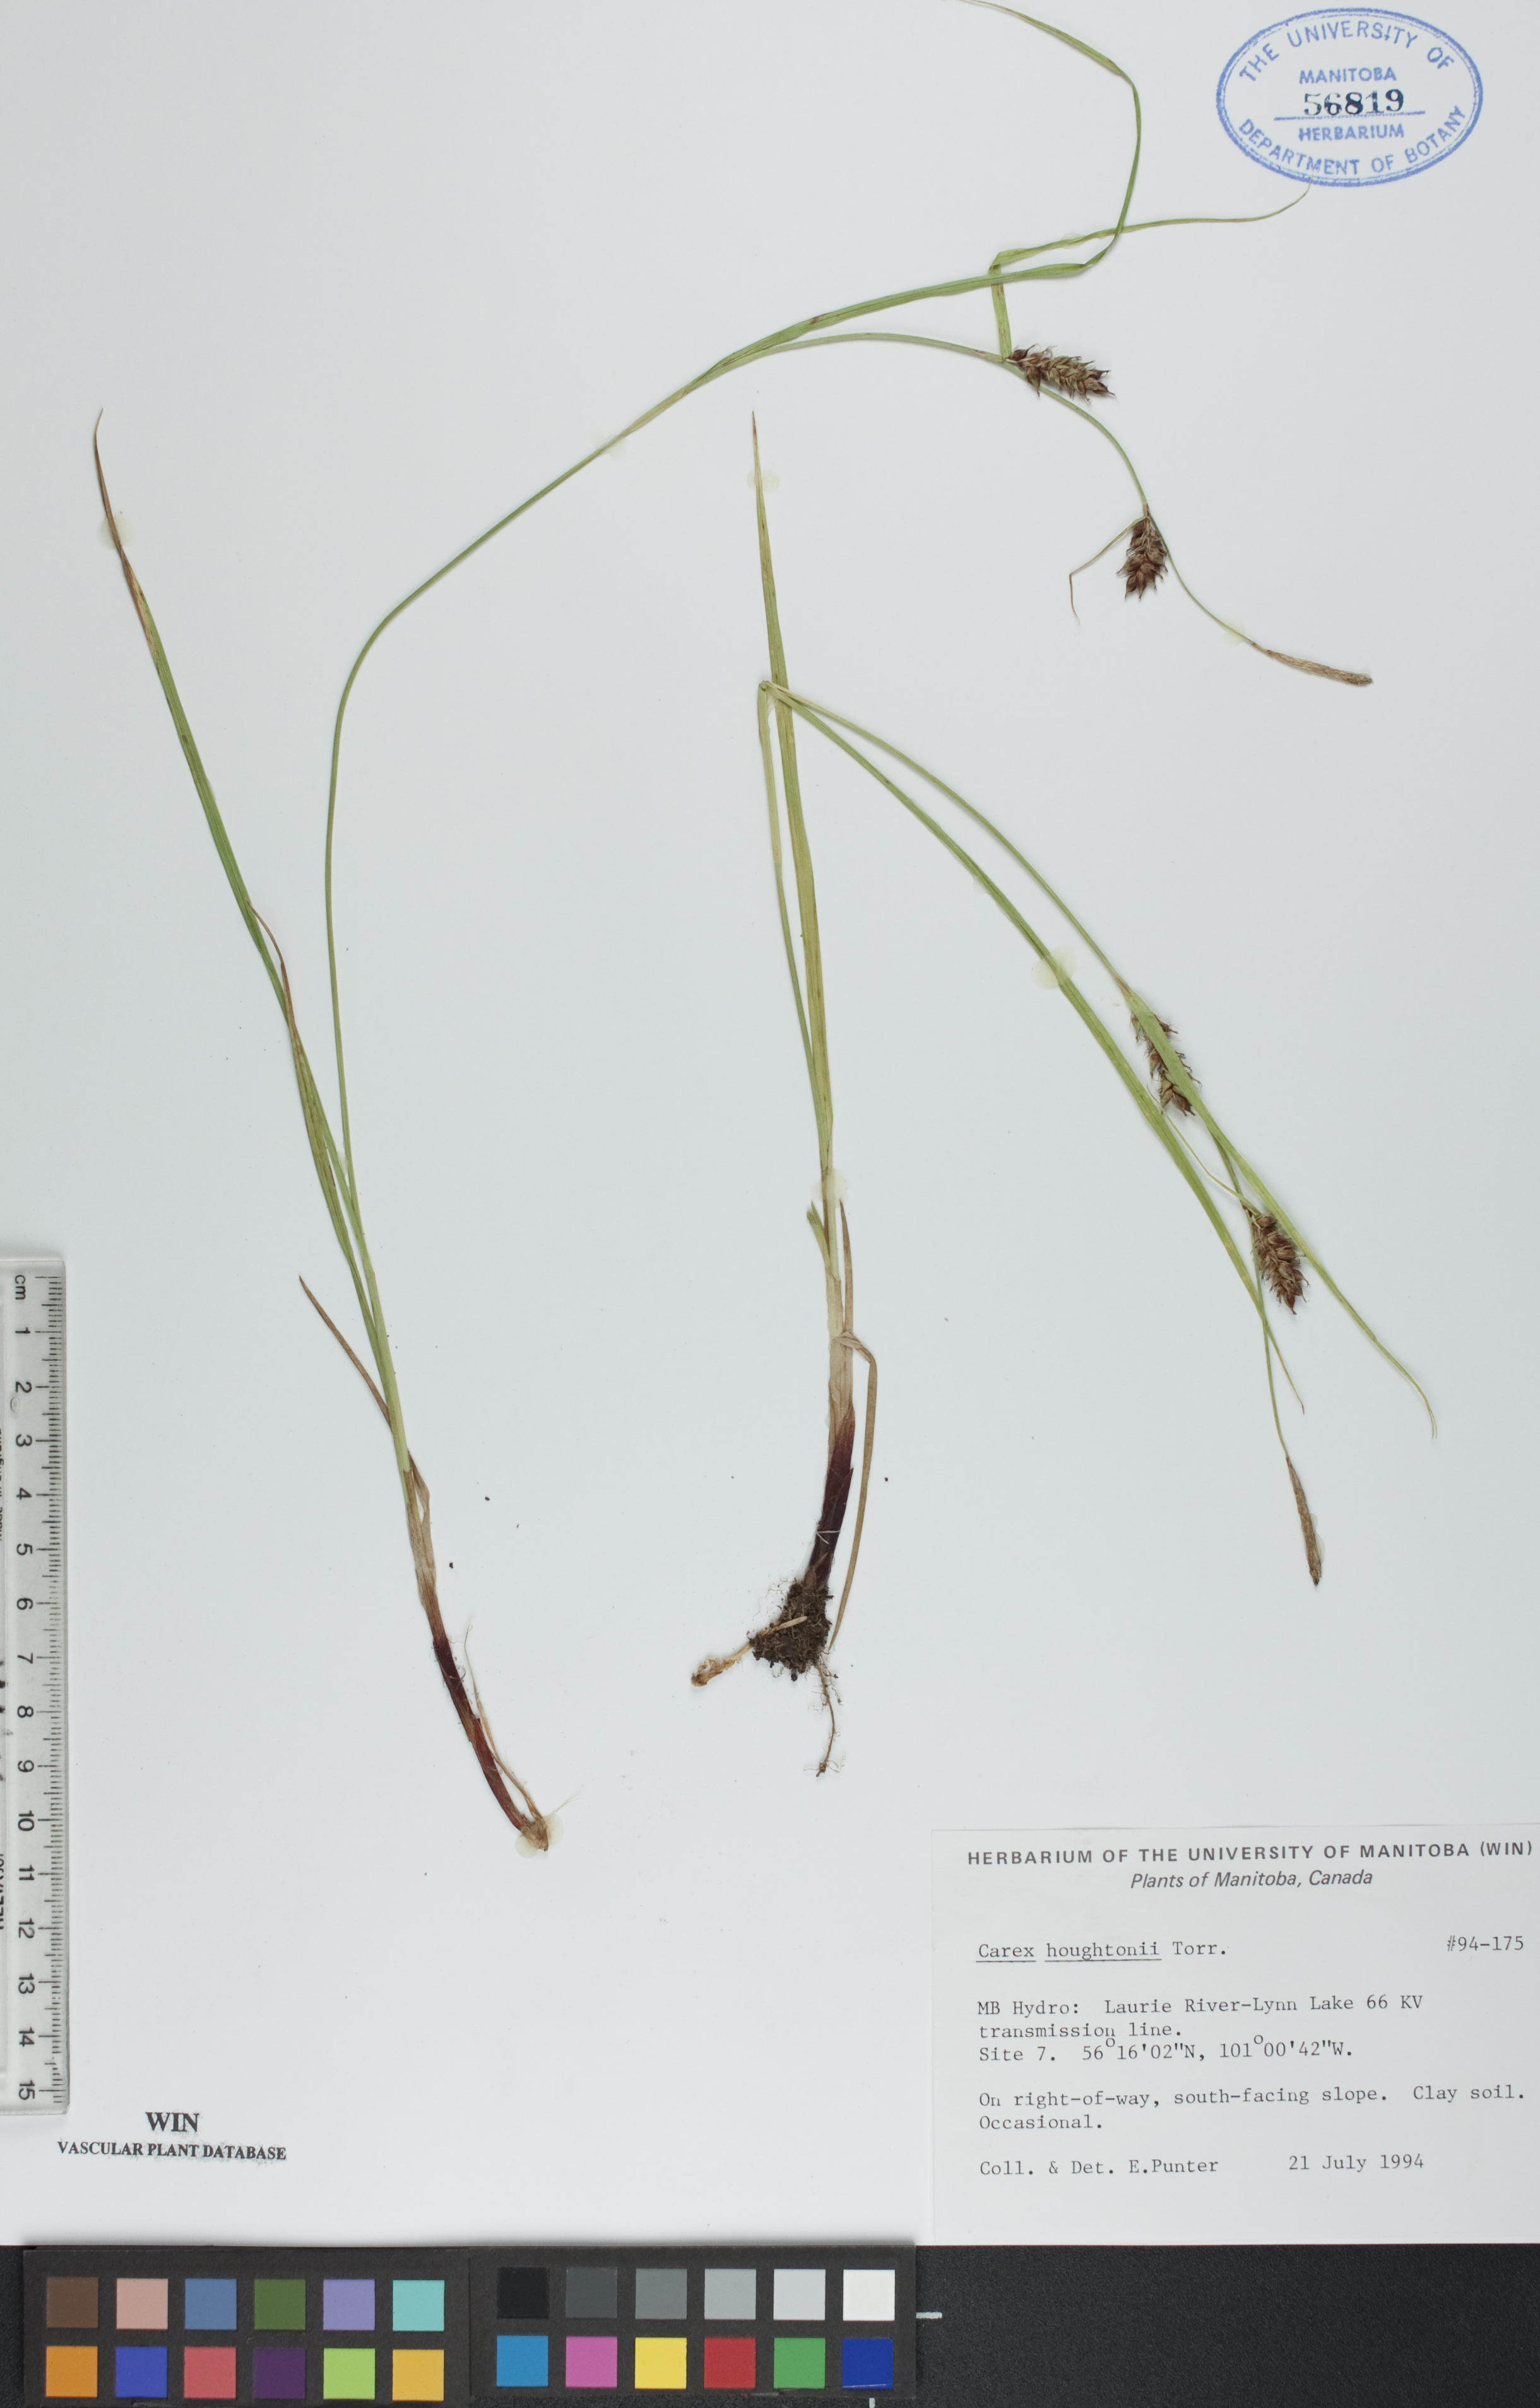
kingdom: Plantae
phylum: Tracheophyta
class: Liliopsida
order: Poales
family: Cyperaceae
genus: Carex
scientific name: Carex houghtoniana
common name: Houghton's sedge
